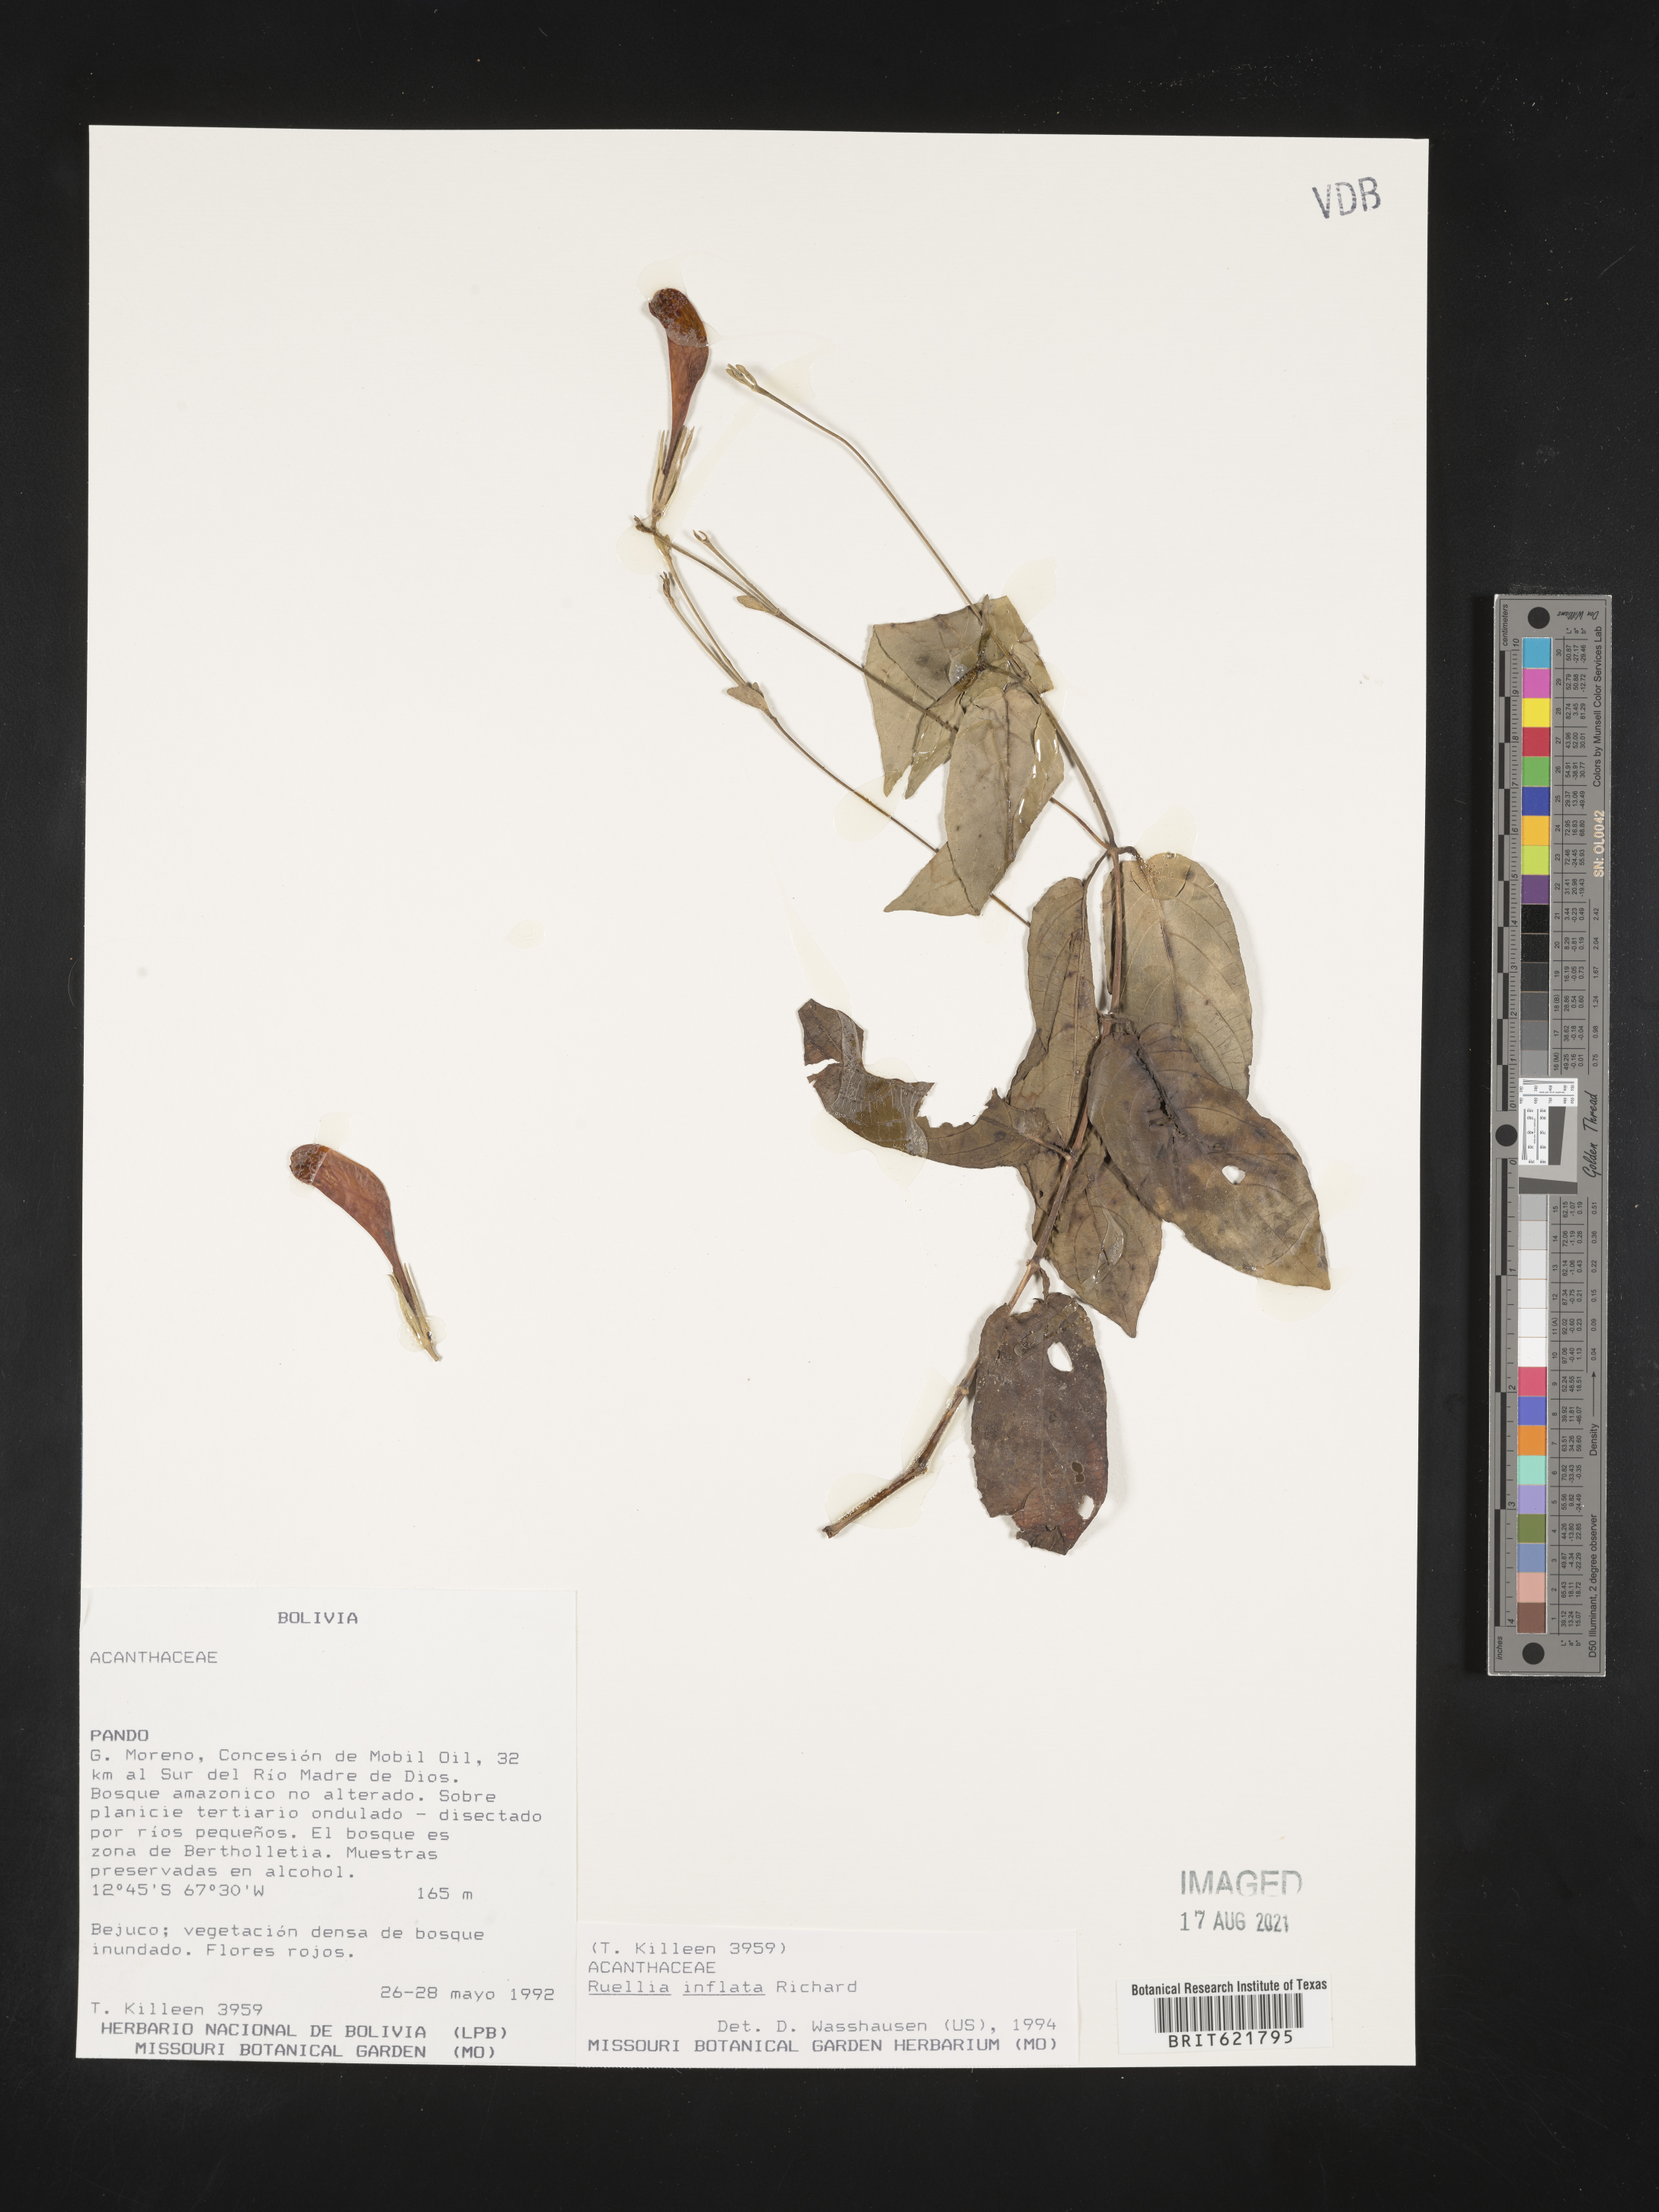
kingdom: Plantae
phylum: Tracheophyta
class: Magnoliopsida
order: Lamiales
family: Acanthaceae
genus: Ruellia
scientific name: Ruellia inflata
